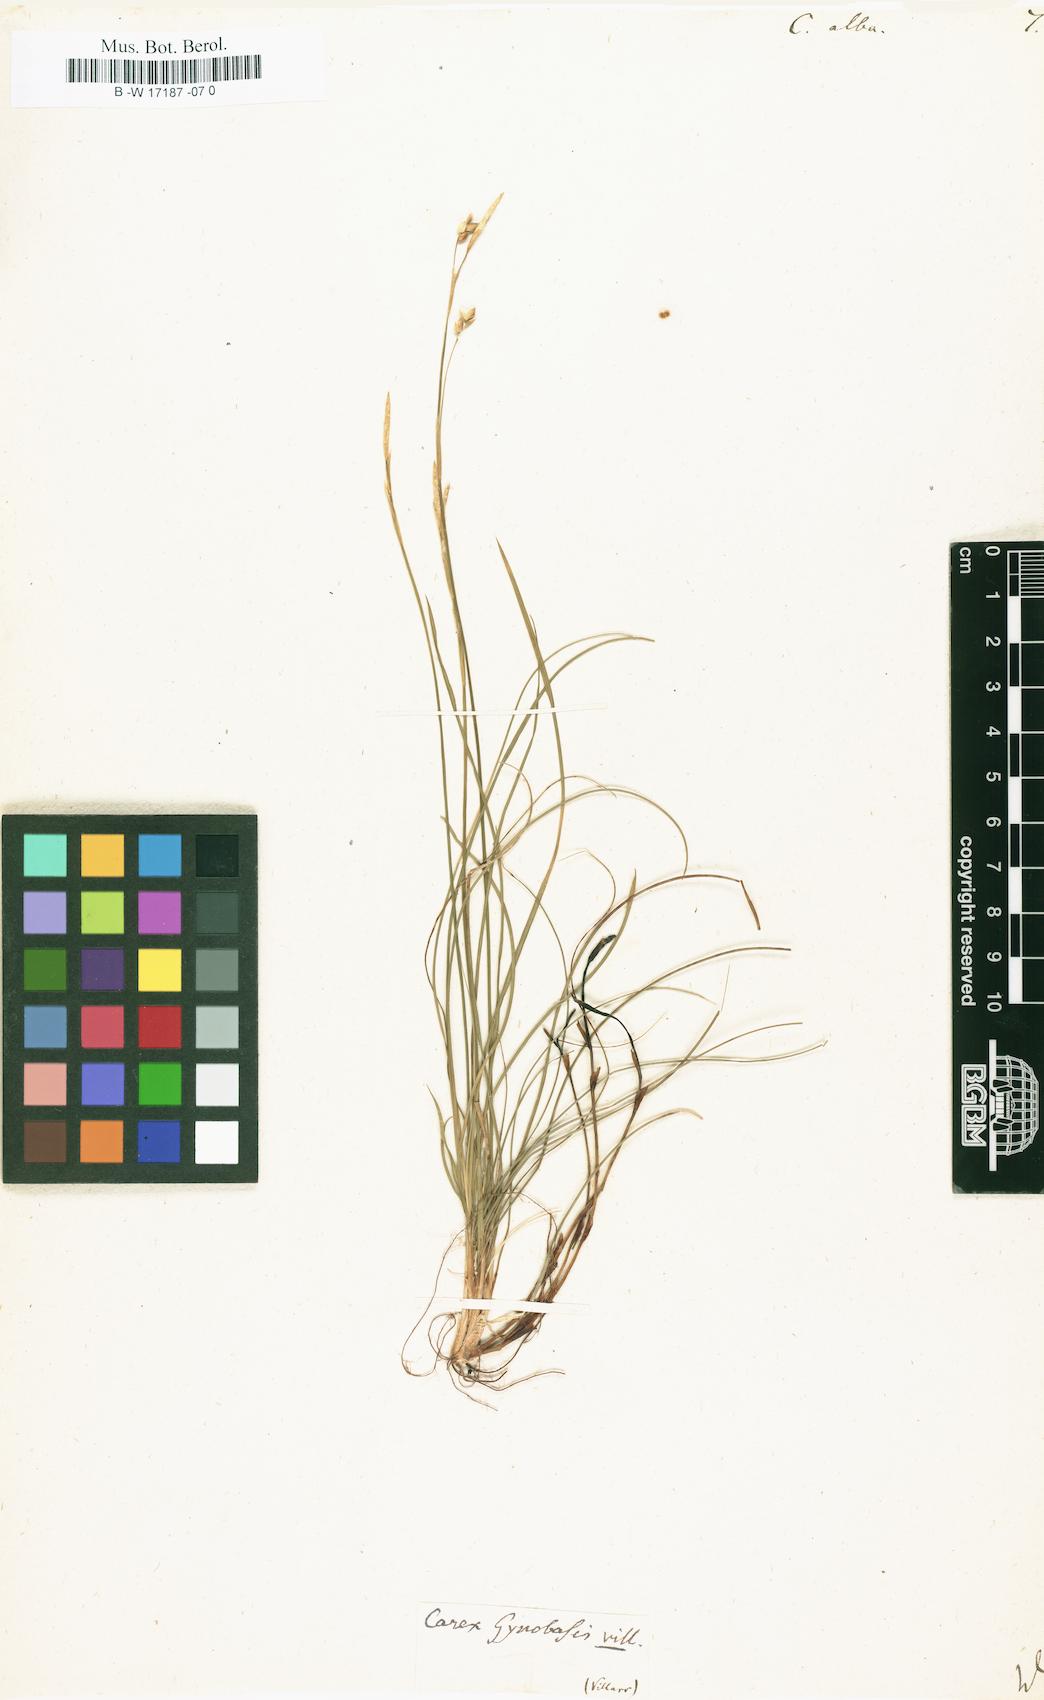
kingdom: Plantae
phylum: Tracheophyta
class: Liliopsida
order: Poales
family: Cyperaceae
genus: Carex
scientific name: Carex alba
